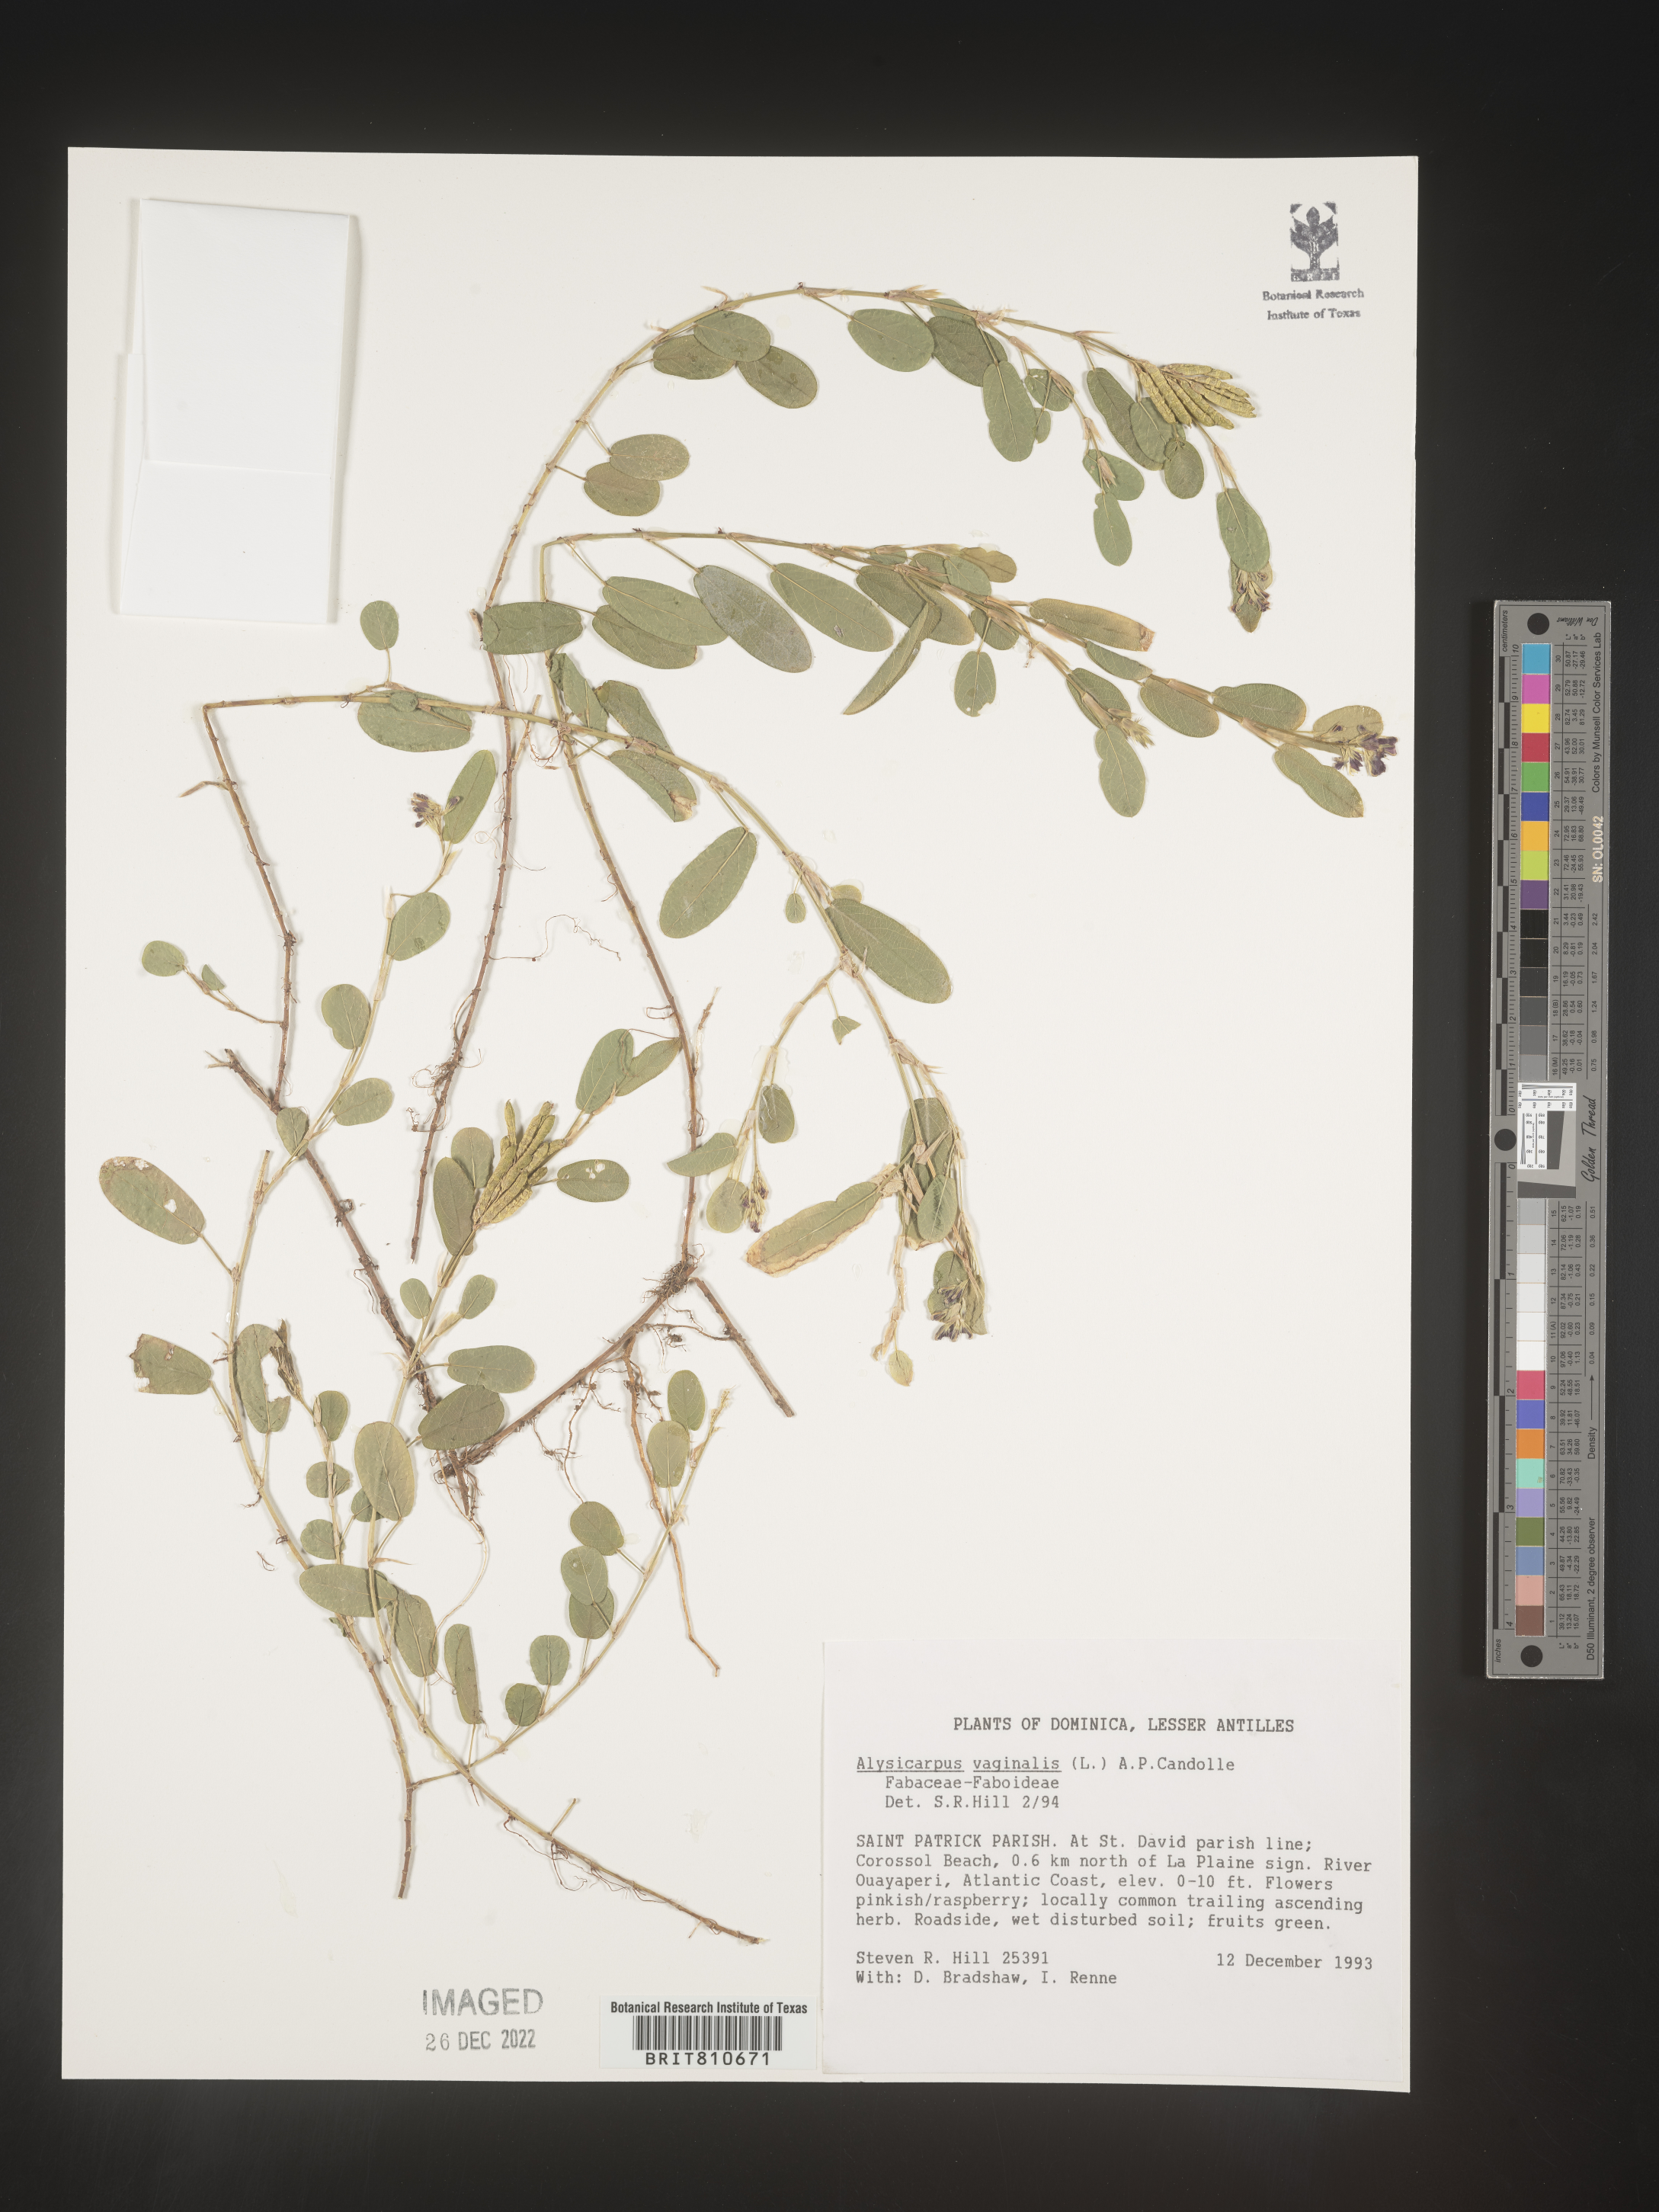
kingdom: Plantae
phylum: Tracheophyta
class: Magnoliopsida
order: Fabales
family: Fabaceae
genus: Alysicarpus
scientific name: Alysicarpus vaginalis
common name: White moneywort
